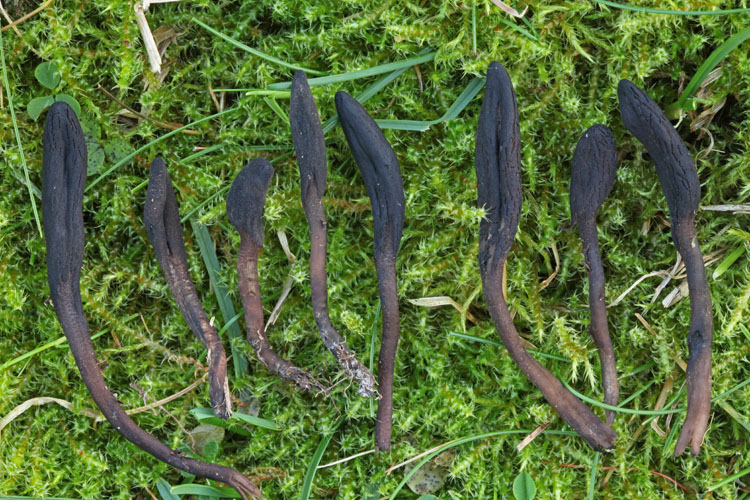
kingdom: Fungi
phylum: Ascomycota
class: Geoglossomycetes
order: Geoglossales
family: Geoglossaceae
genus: Geoglossum
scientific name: Geoglossum fallax
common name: småskællet jordtunge
